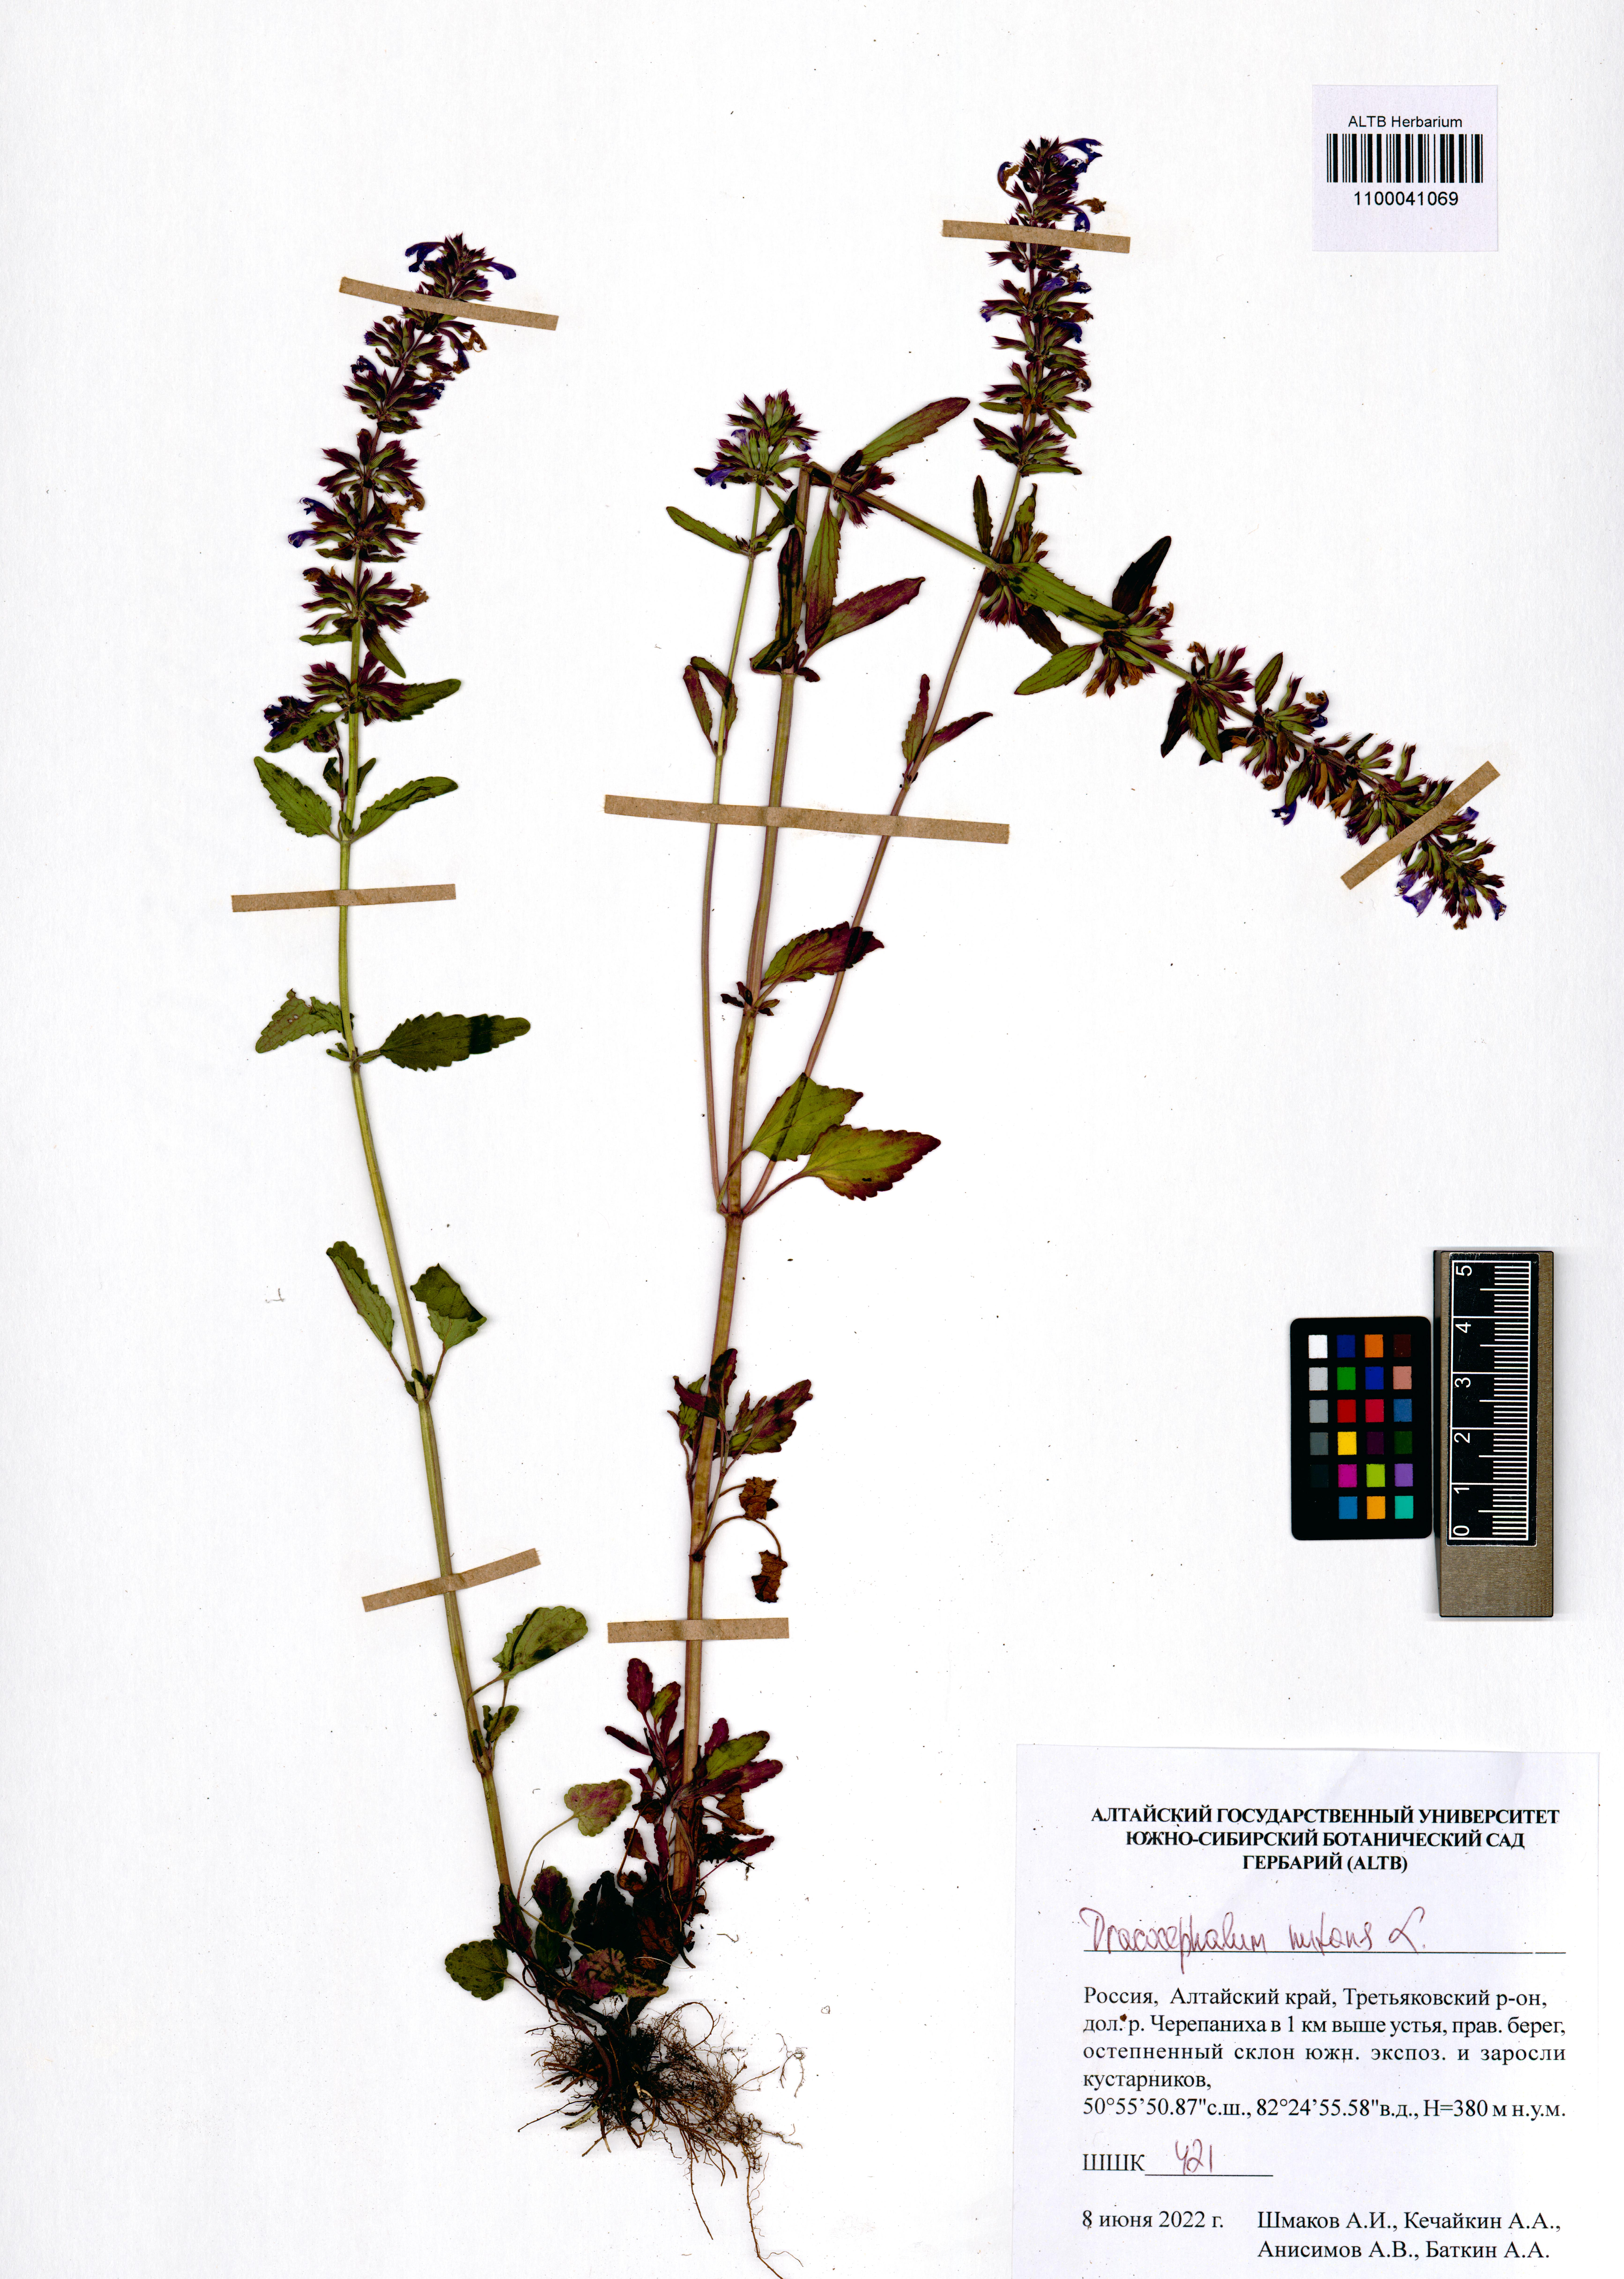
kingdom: Plantae
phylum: Tracheophyta
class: Magnoliopsida
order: Lamiales
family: Lamiaceae
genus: Dracocephalum
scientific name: Dracocephalum nutans
